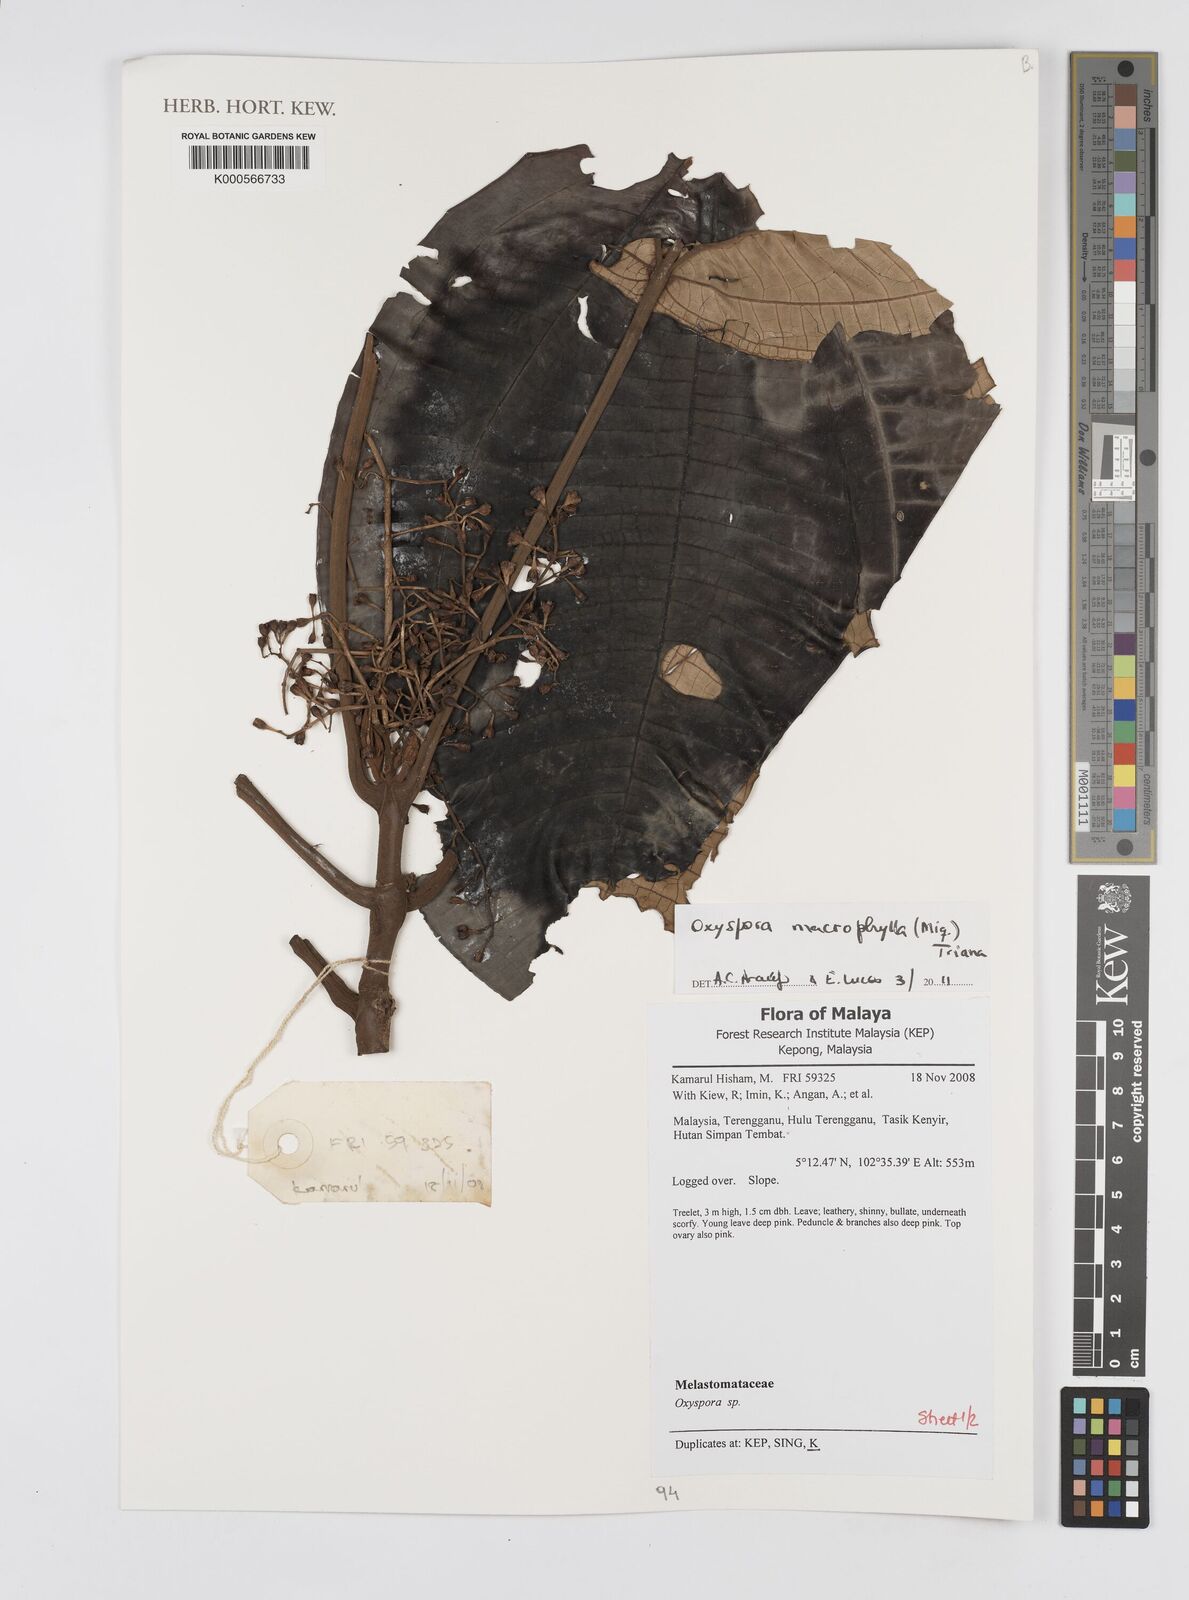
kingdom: Plantae
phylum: Tracheophyta
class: Magnoliopsida
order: Myrtales
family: Melastomataceae
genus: Hylocharis
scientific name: Hylocharis macrophylla
